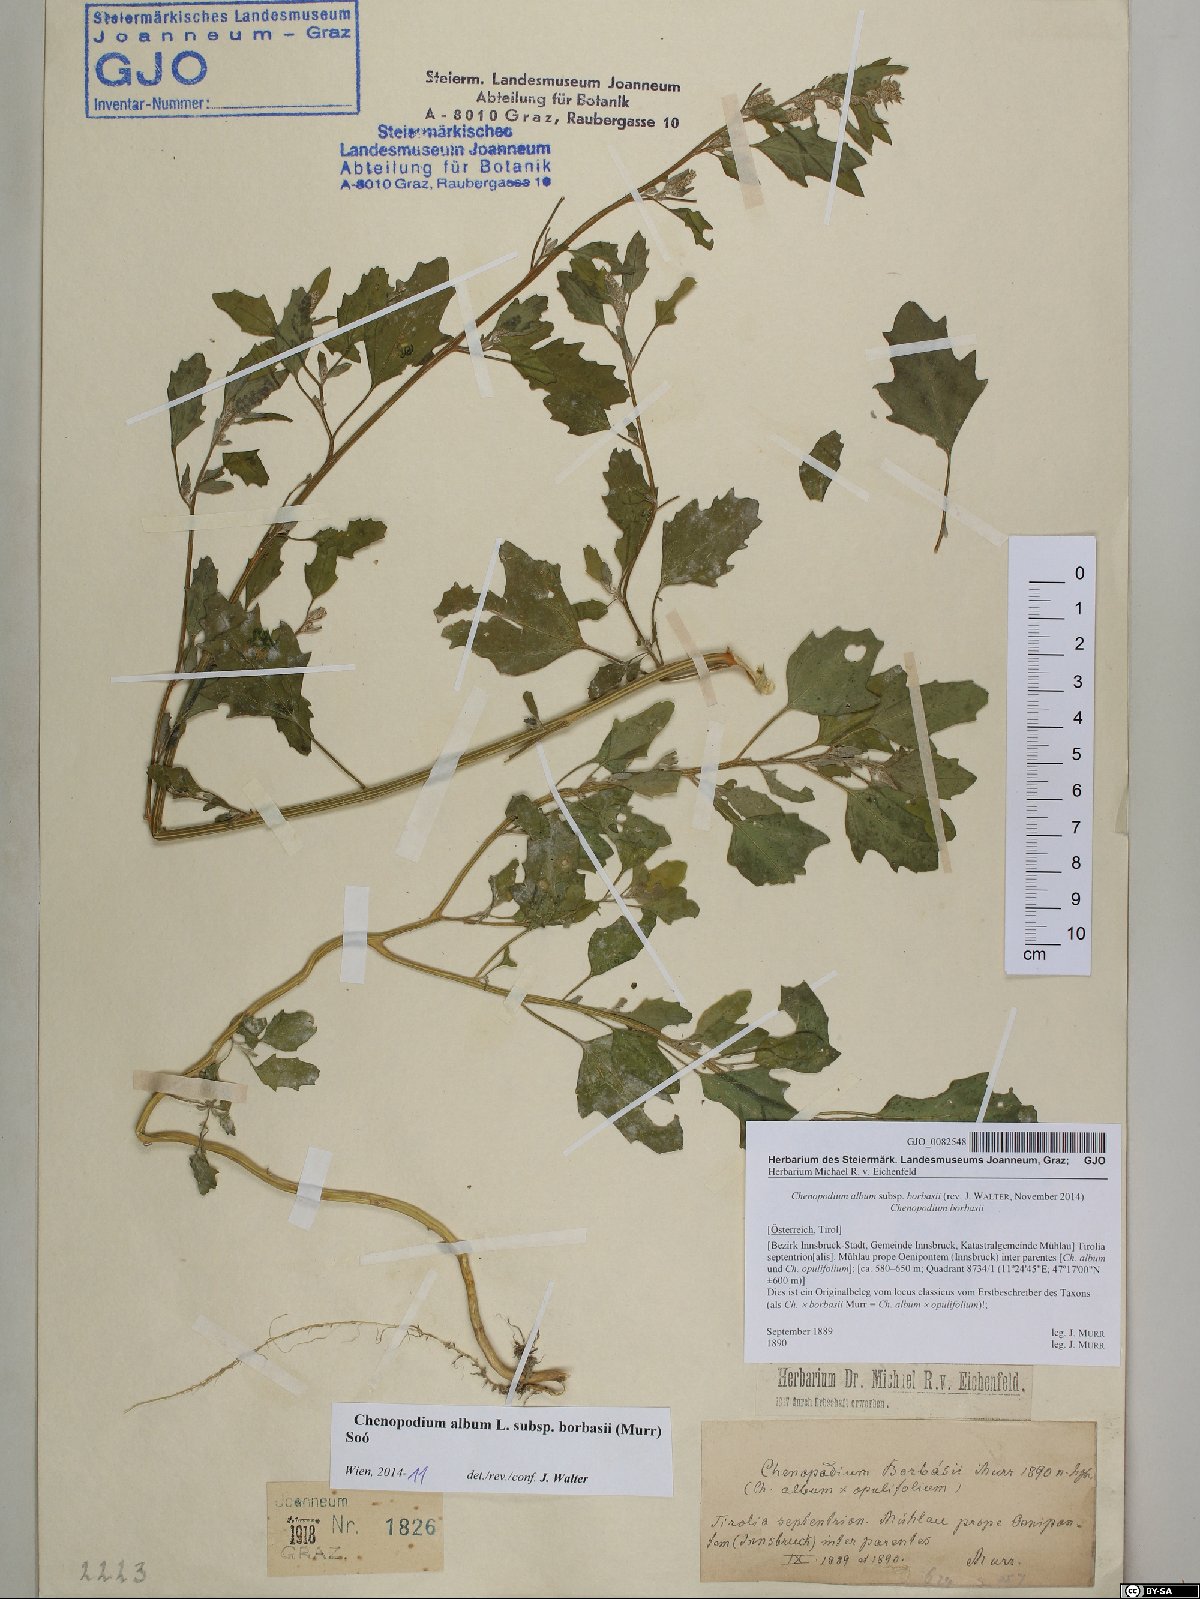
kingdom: Plantae
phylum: Tracheophyta
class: Magnoliopsida
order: Caryophyllales
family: Amaranthaceae
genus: Chenopodium
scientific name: Chenopodium borbasii
